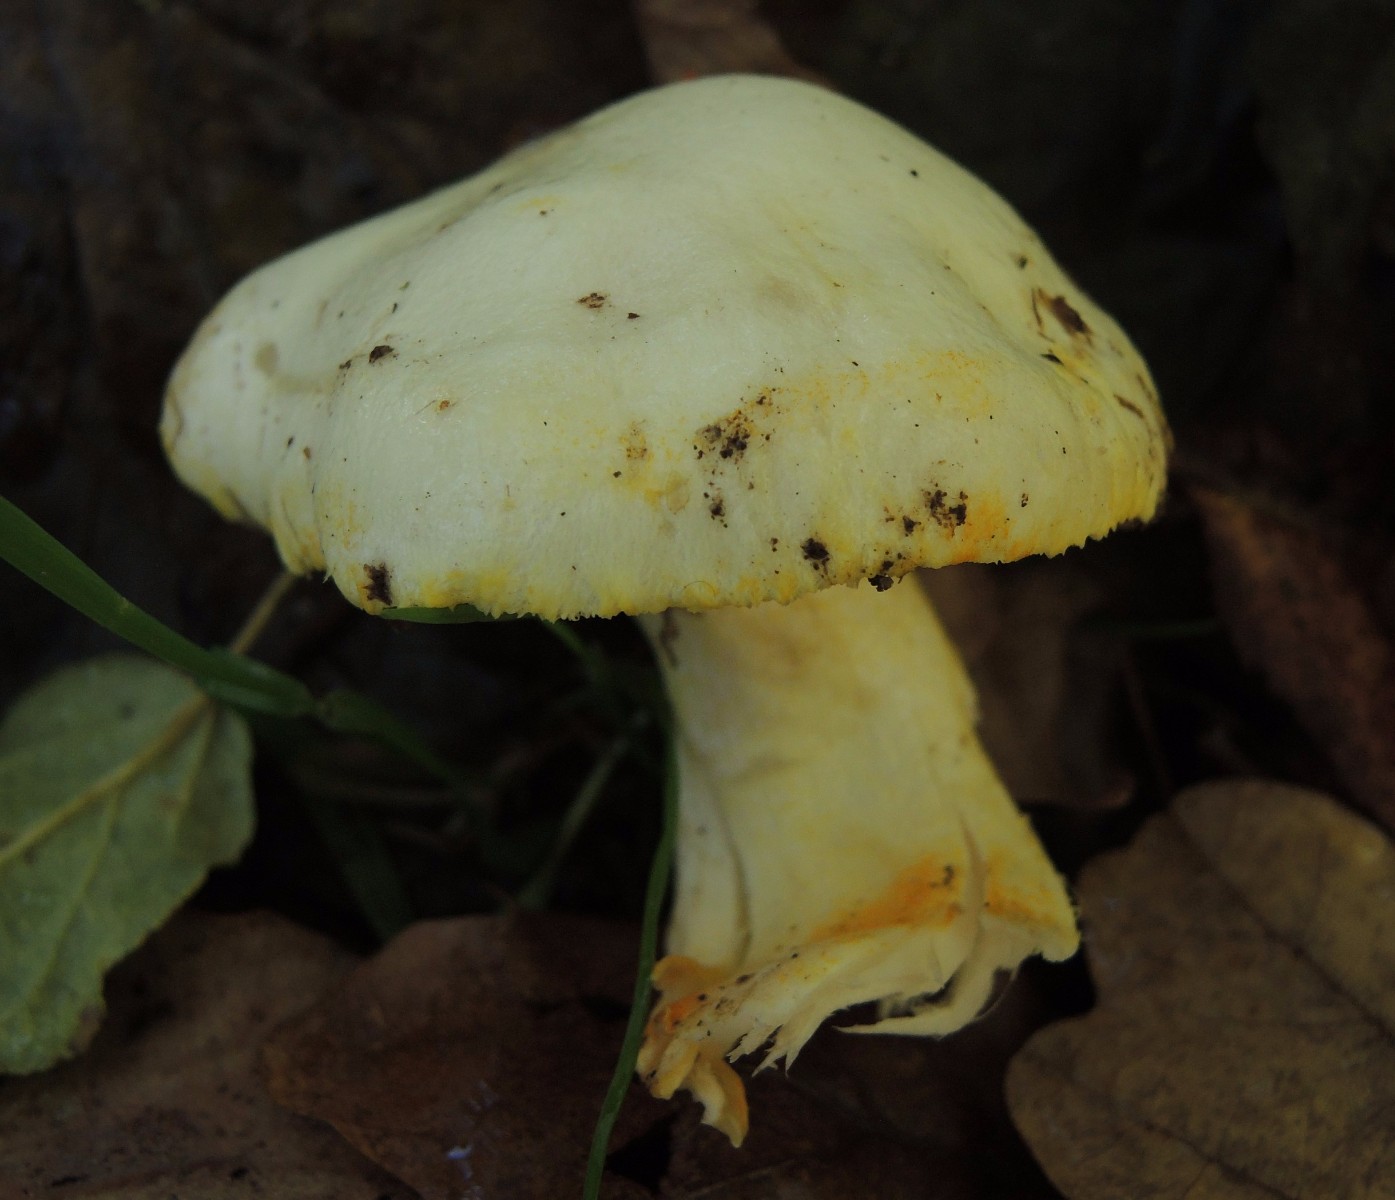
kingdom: Fungi
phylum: Basidiomycota
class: Agaricomycetes
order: Agaricales
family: Hygrophoraceae
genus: Hygrophorus
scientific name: Hygrophorus chrysodon
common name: gulfnugget sneglehat
